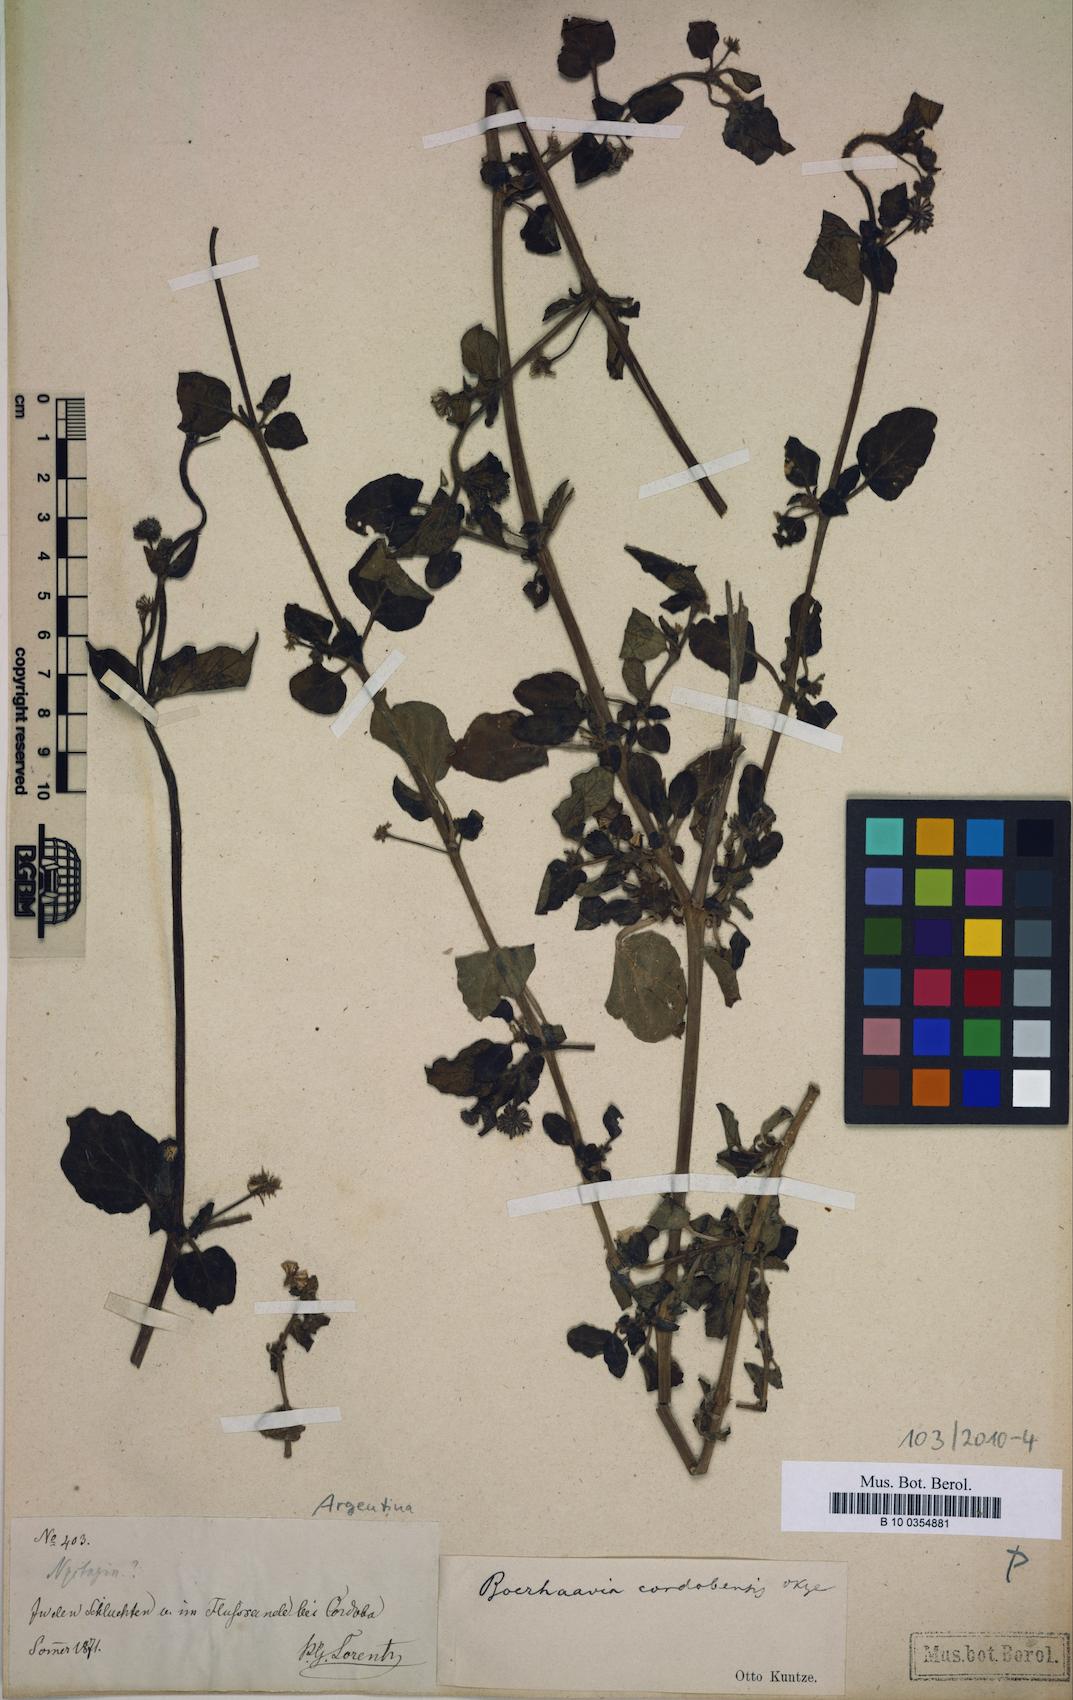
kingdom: Plantae
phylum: Tracheophyta
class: Magnoliopsida
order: Caryophyllales
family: Nyctaginaceae
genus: Boerhavia
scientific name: Boerhavia cordobensis
